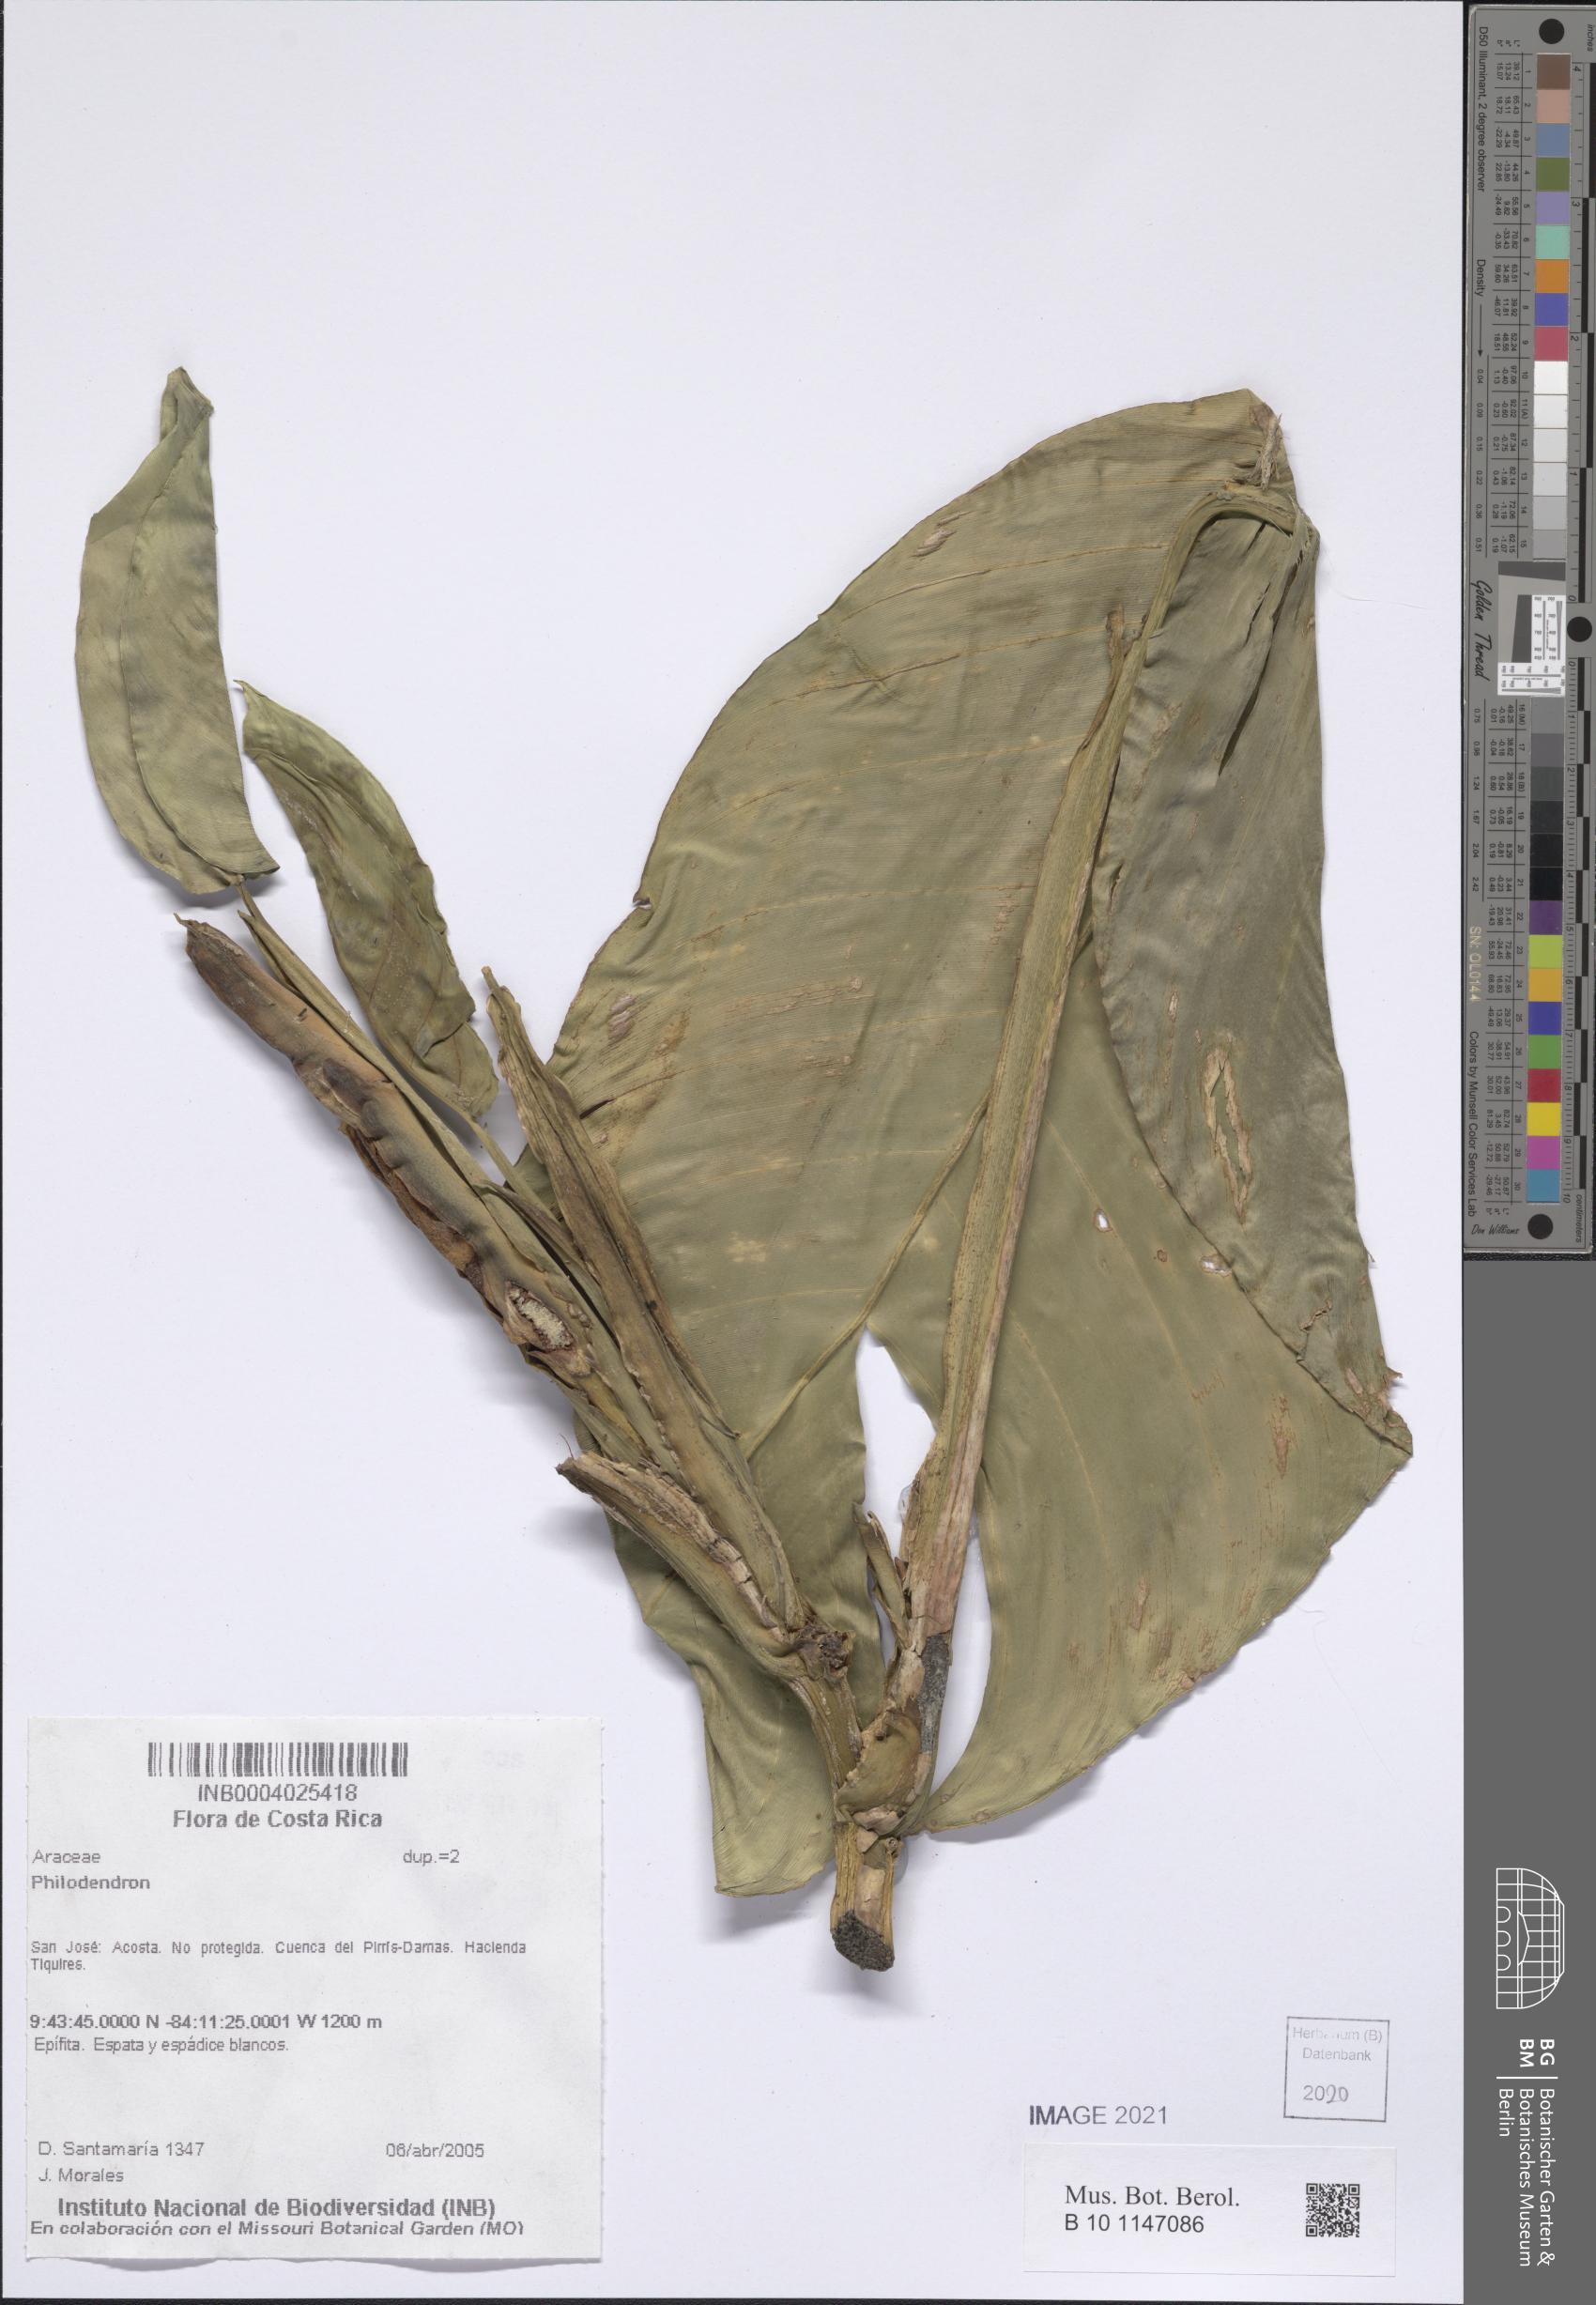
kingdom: Plantae
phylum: Tracheophyta
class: Liliopsida
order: Alismatales
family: Araceae
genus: Philodendron
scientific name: Philodendron
